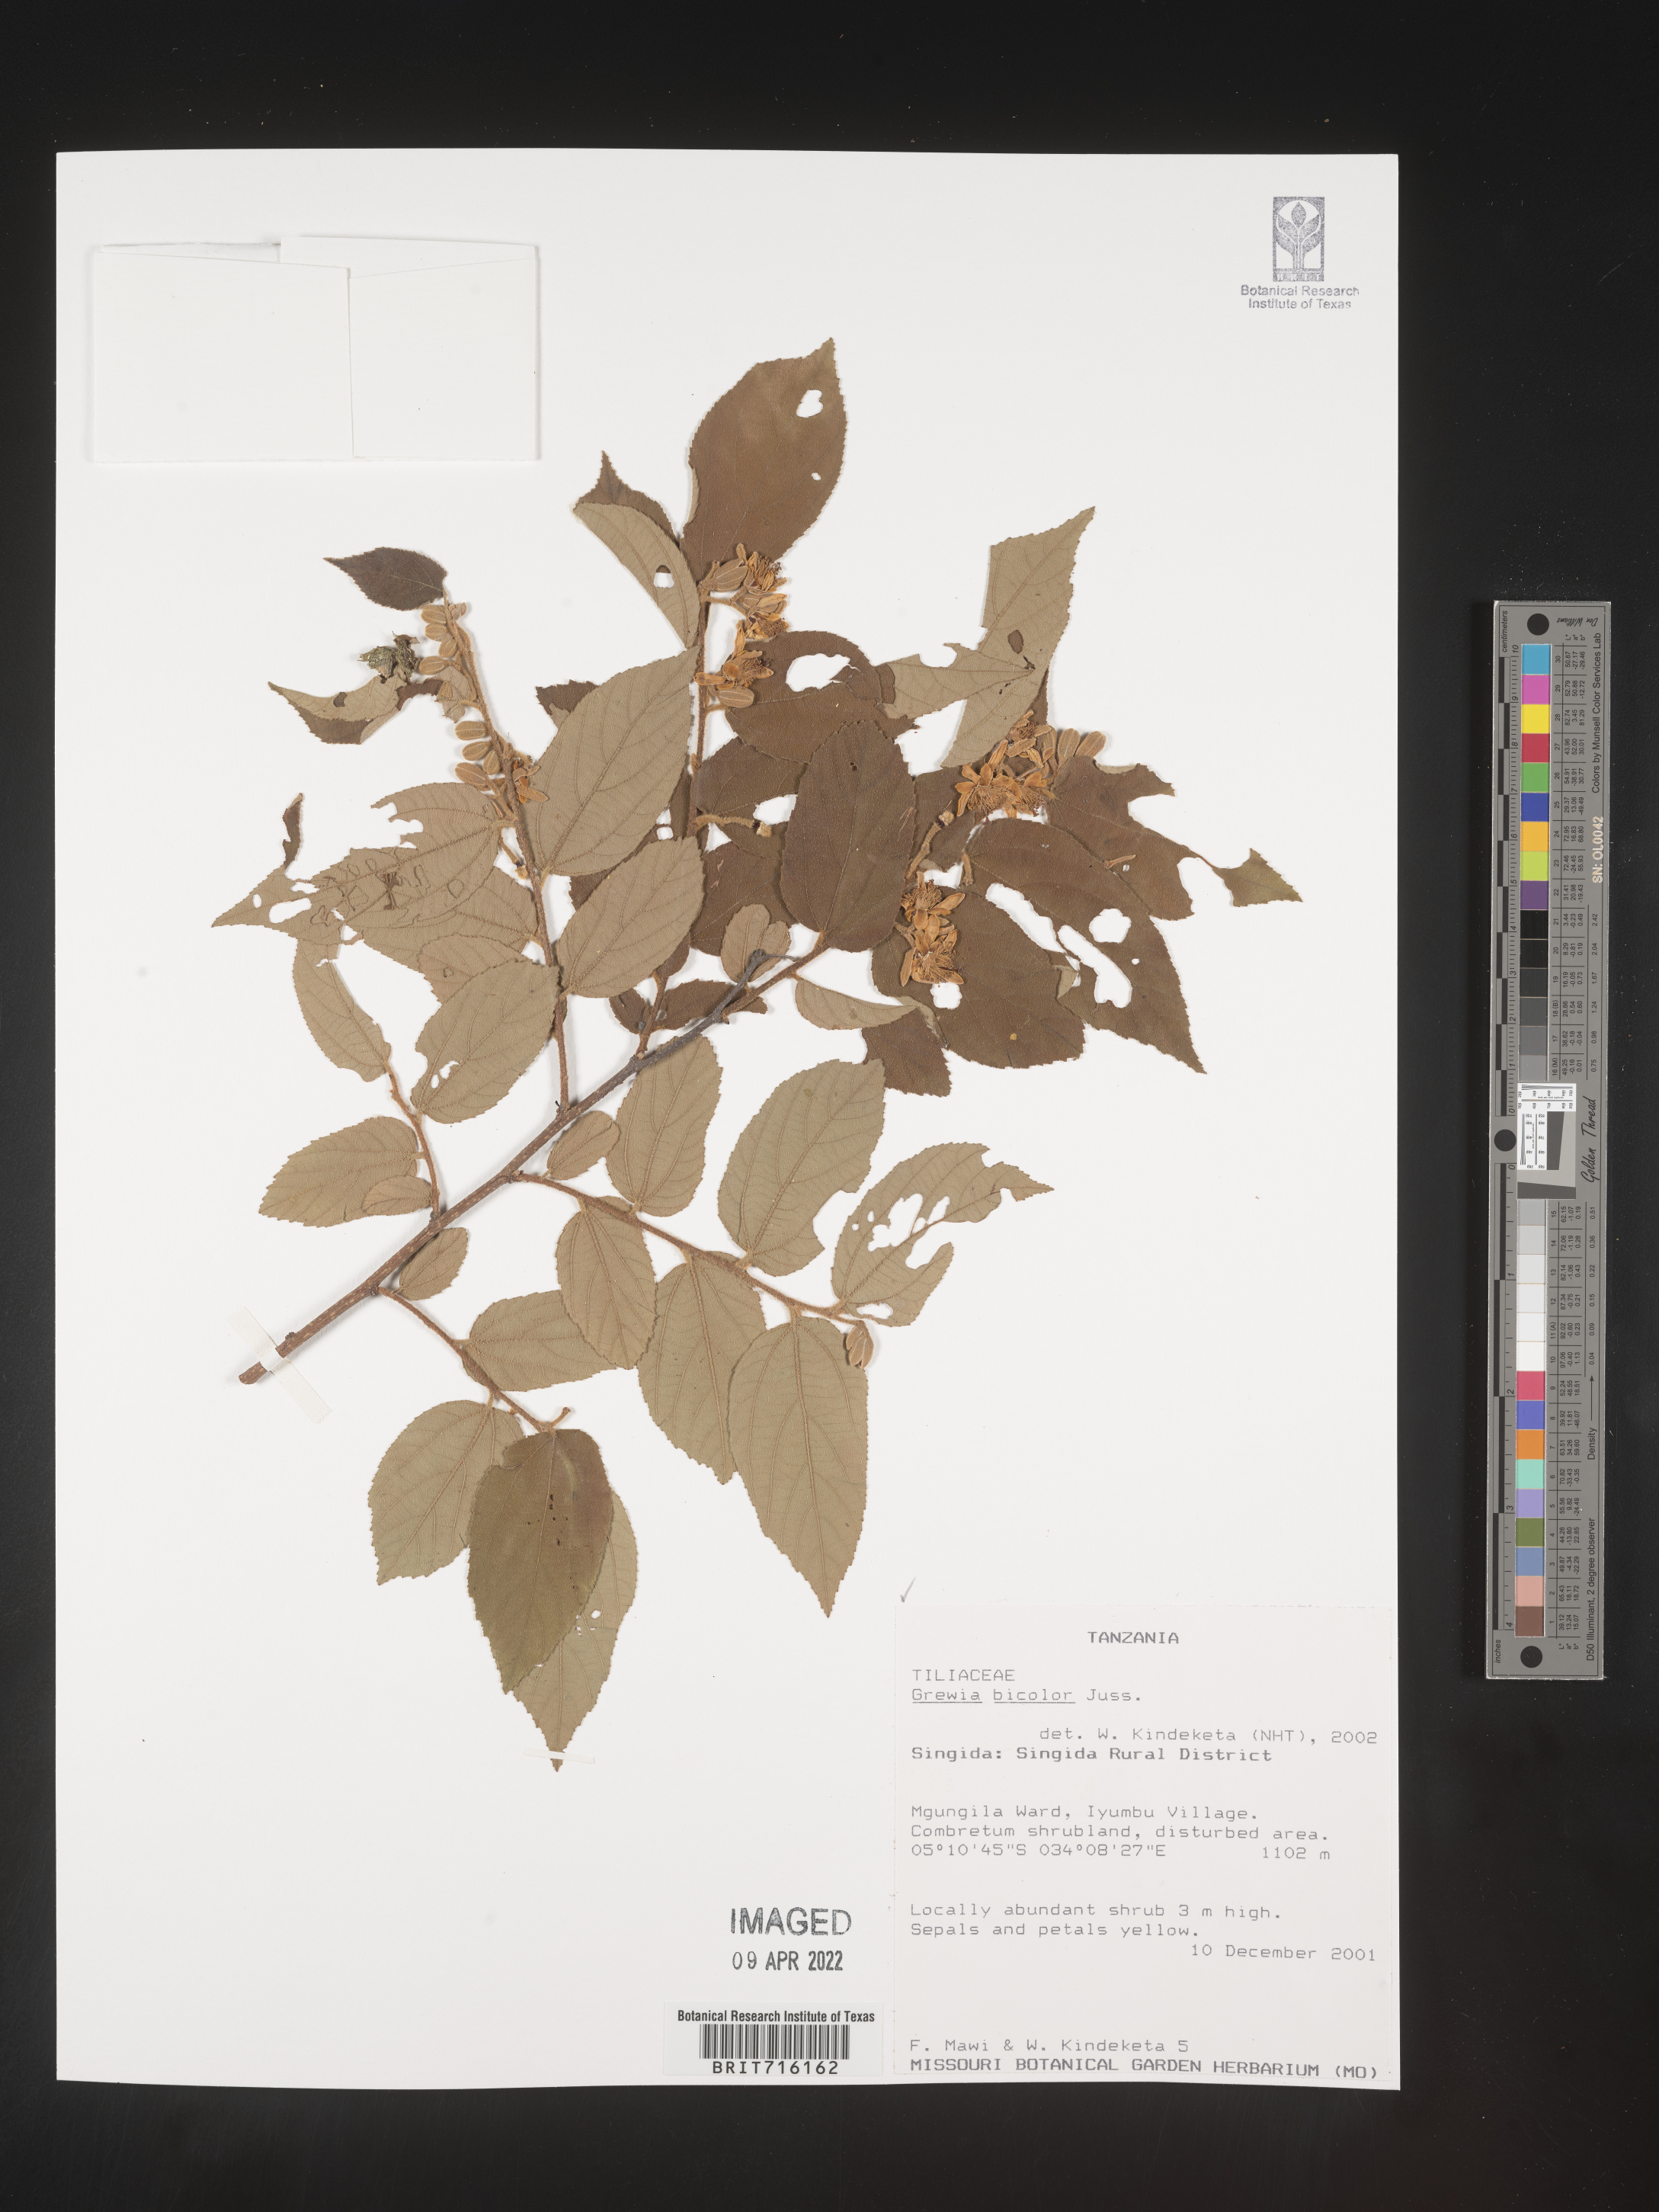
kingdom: Plantae
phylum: Tracheophyta
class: Magnoliopsida
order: Malvales
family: Malvaceae
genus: Grewia
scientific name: Grewia
